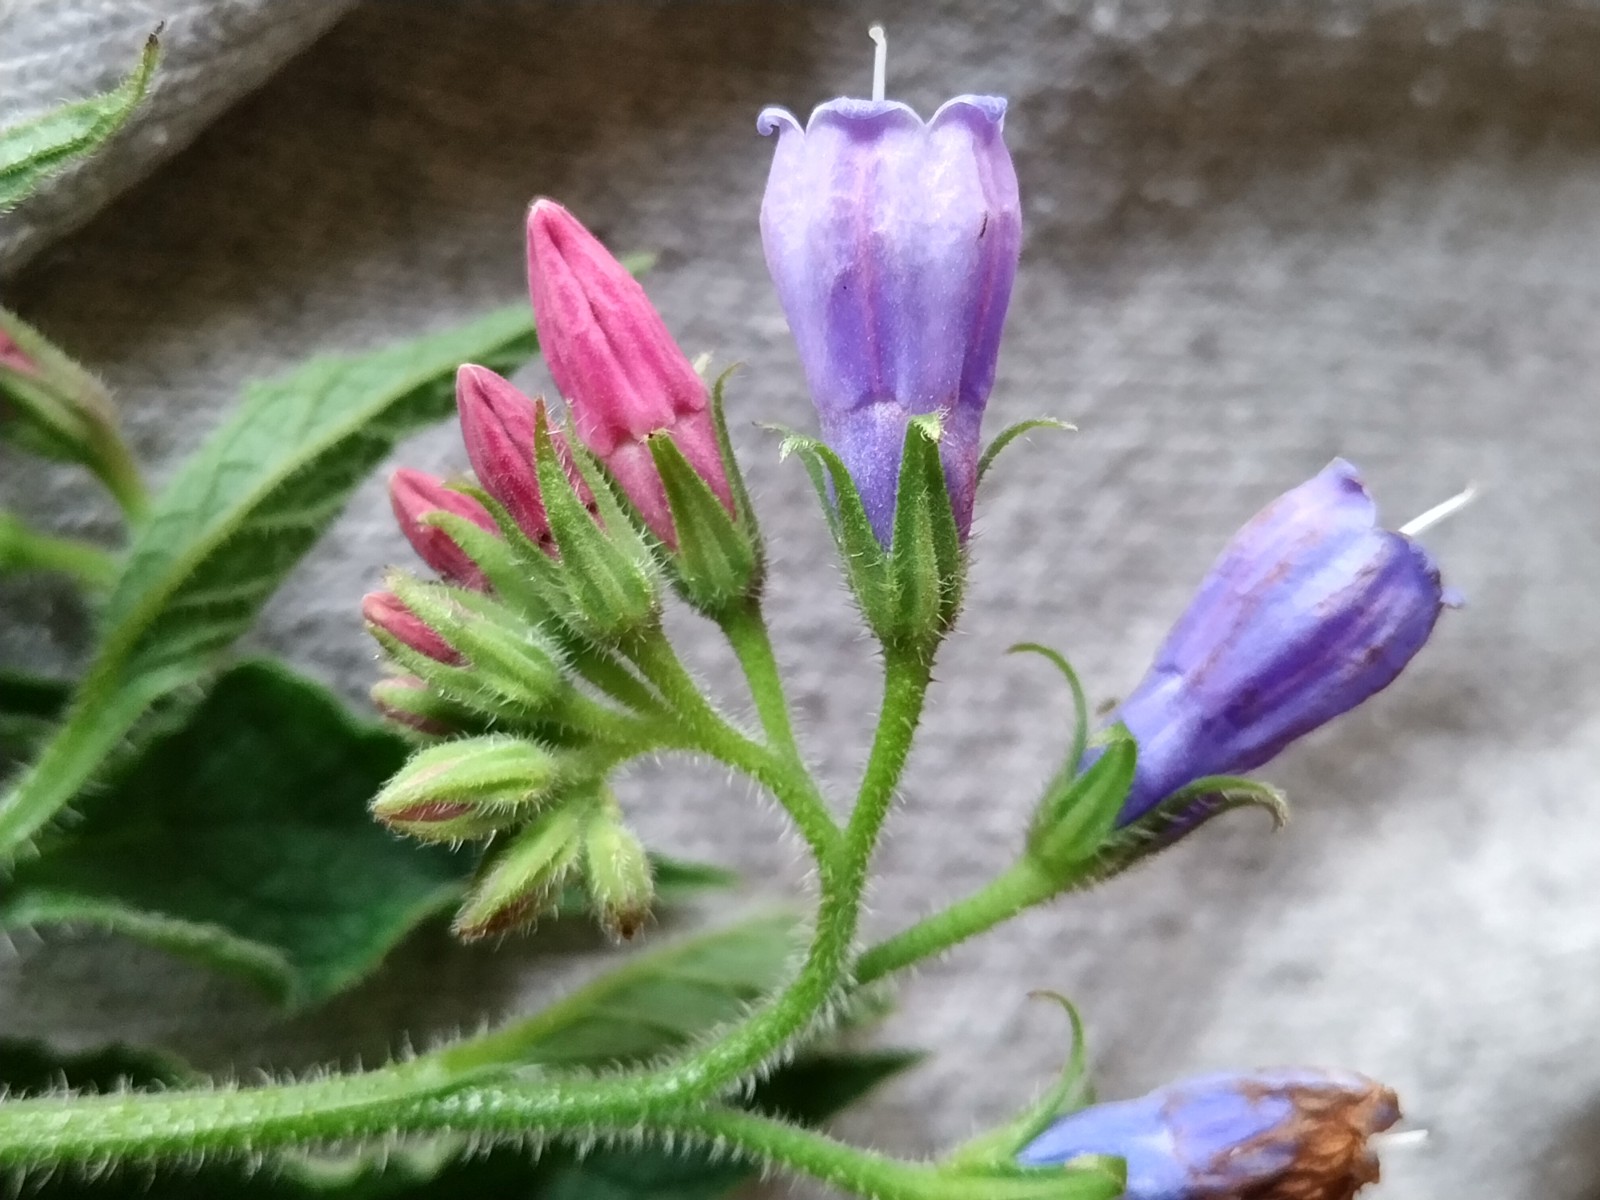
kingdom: Fungi
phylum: Ascomycota
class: Leotiomycetes
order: Helotiales
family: Erysiphaceae
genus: Golovinomyces
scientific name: Golovinomyces asperifoliorum
